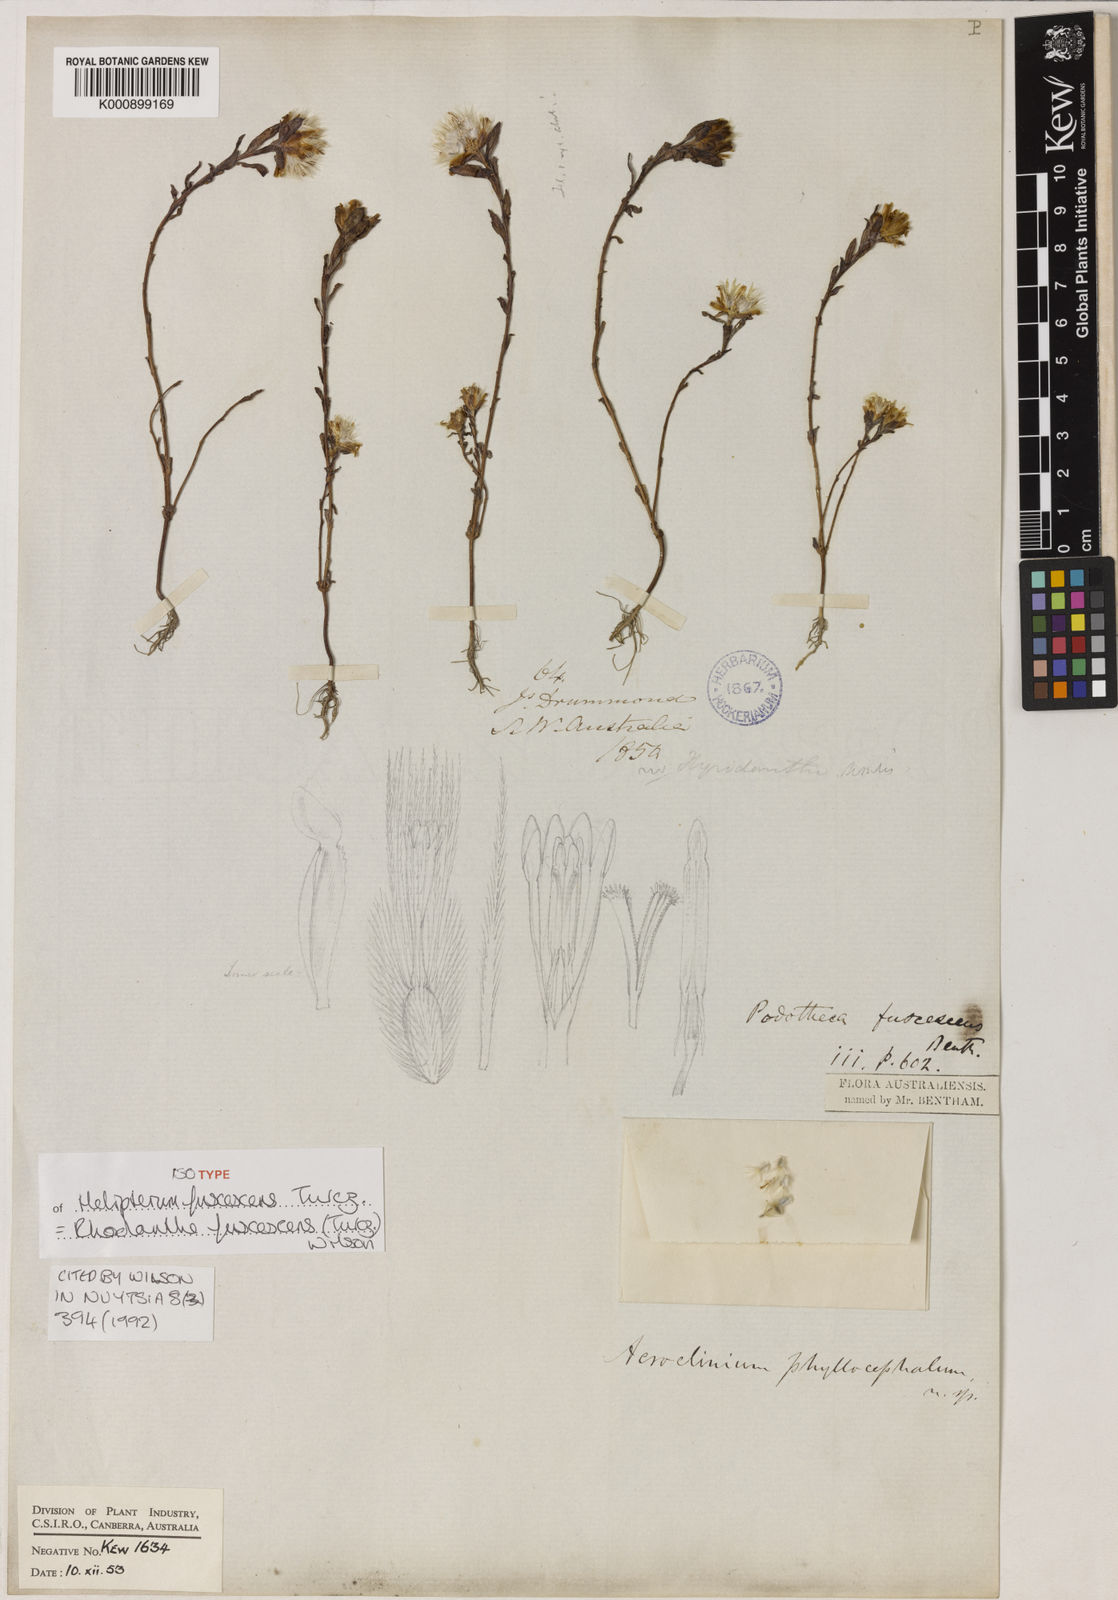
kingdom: Plantae
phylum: Tracheophyta
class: Magnoliopsida
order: Asterales
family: Asteraceae
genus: Rhodanthe
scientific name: Rhodanthe fuscescens
